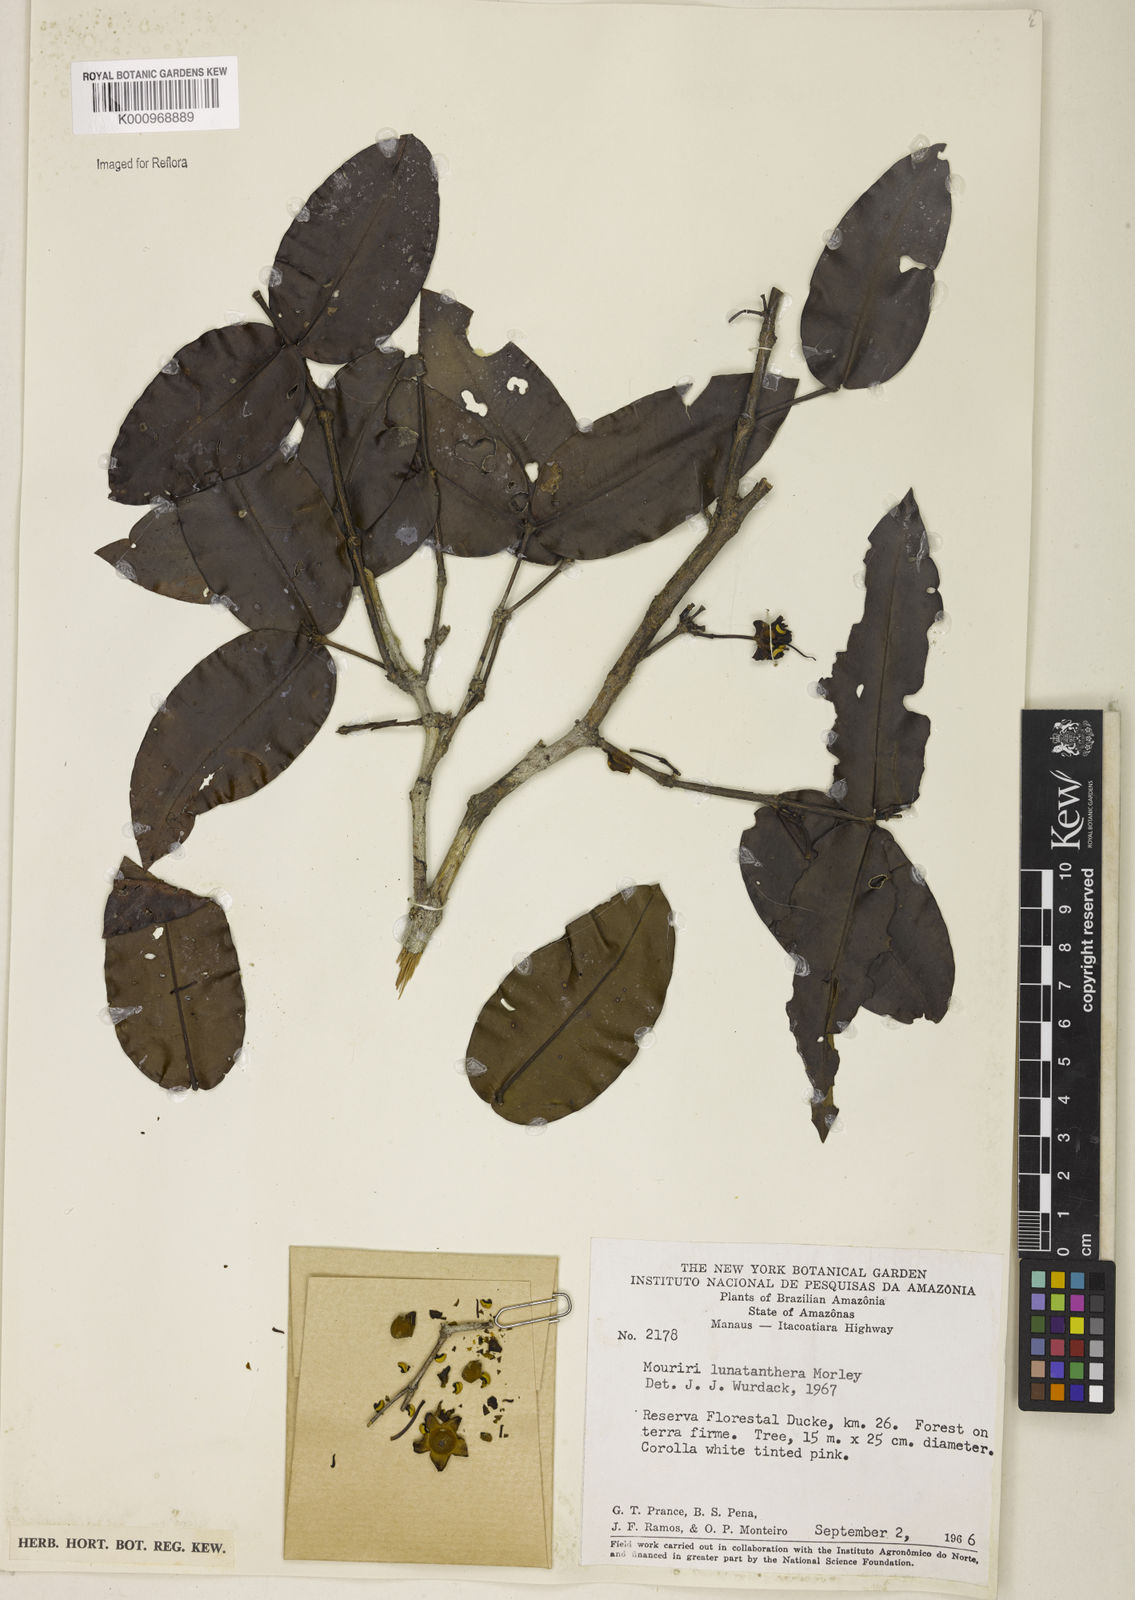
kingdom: Plantae
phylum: Tracheophyta
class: Magnoliopsida
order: Myrtales
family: Melastomataceae
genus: Mouriri
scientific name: Mouriri
